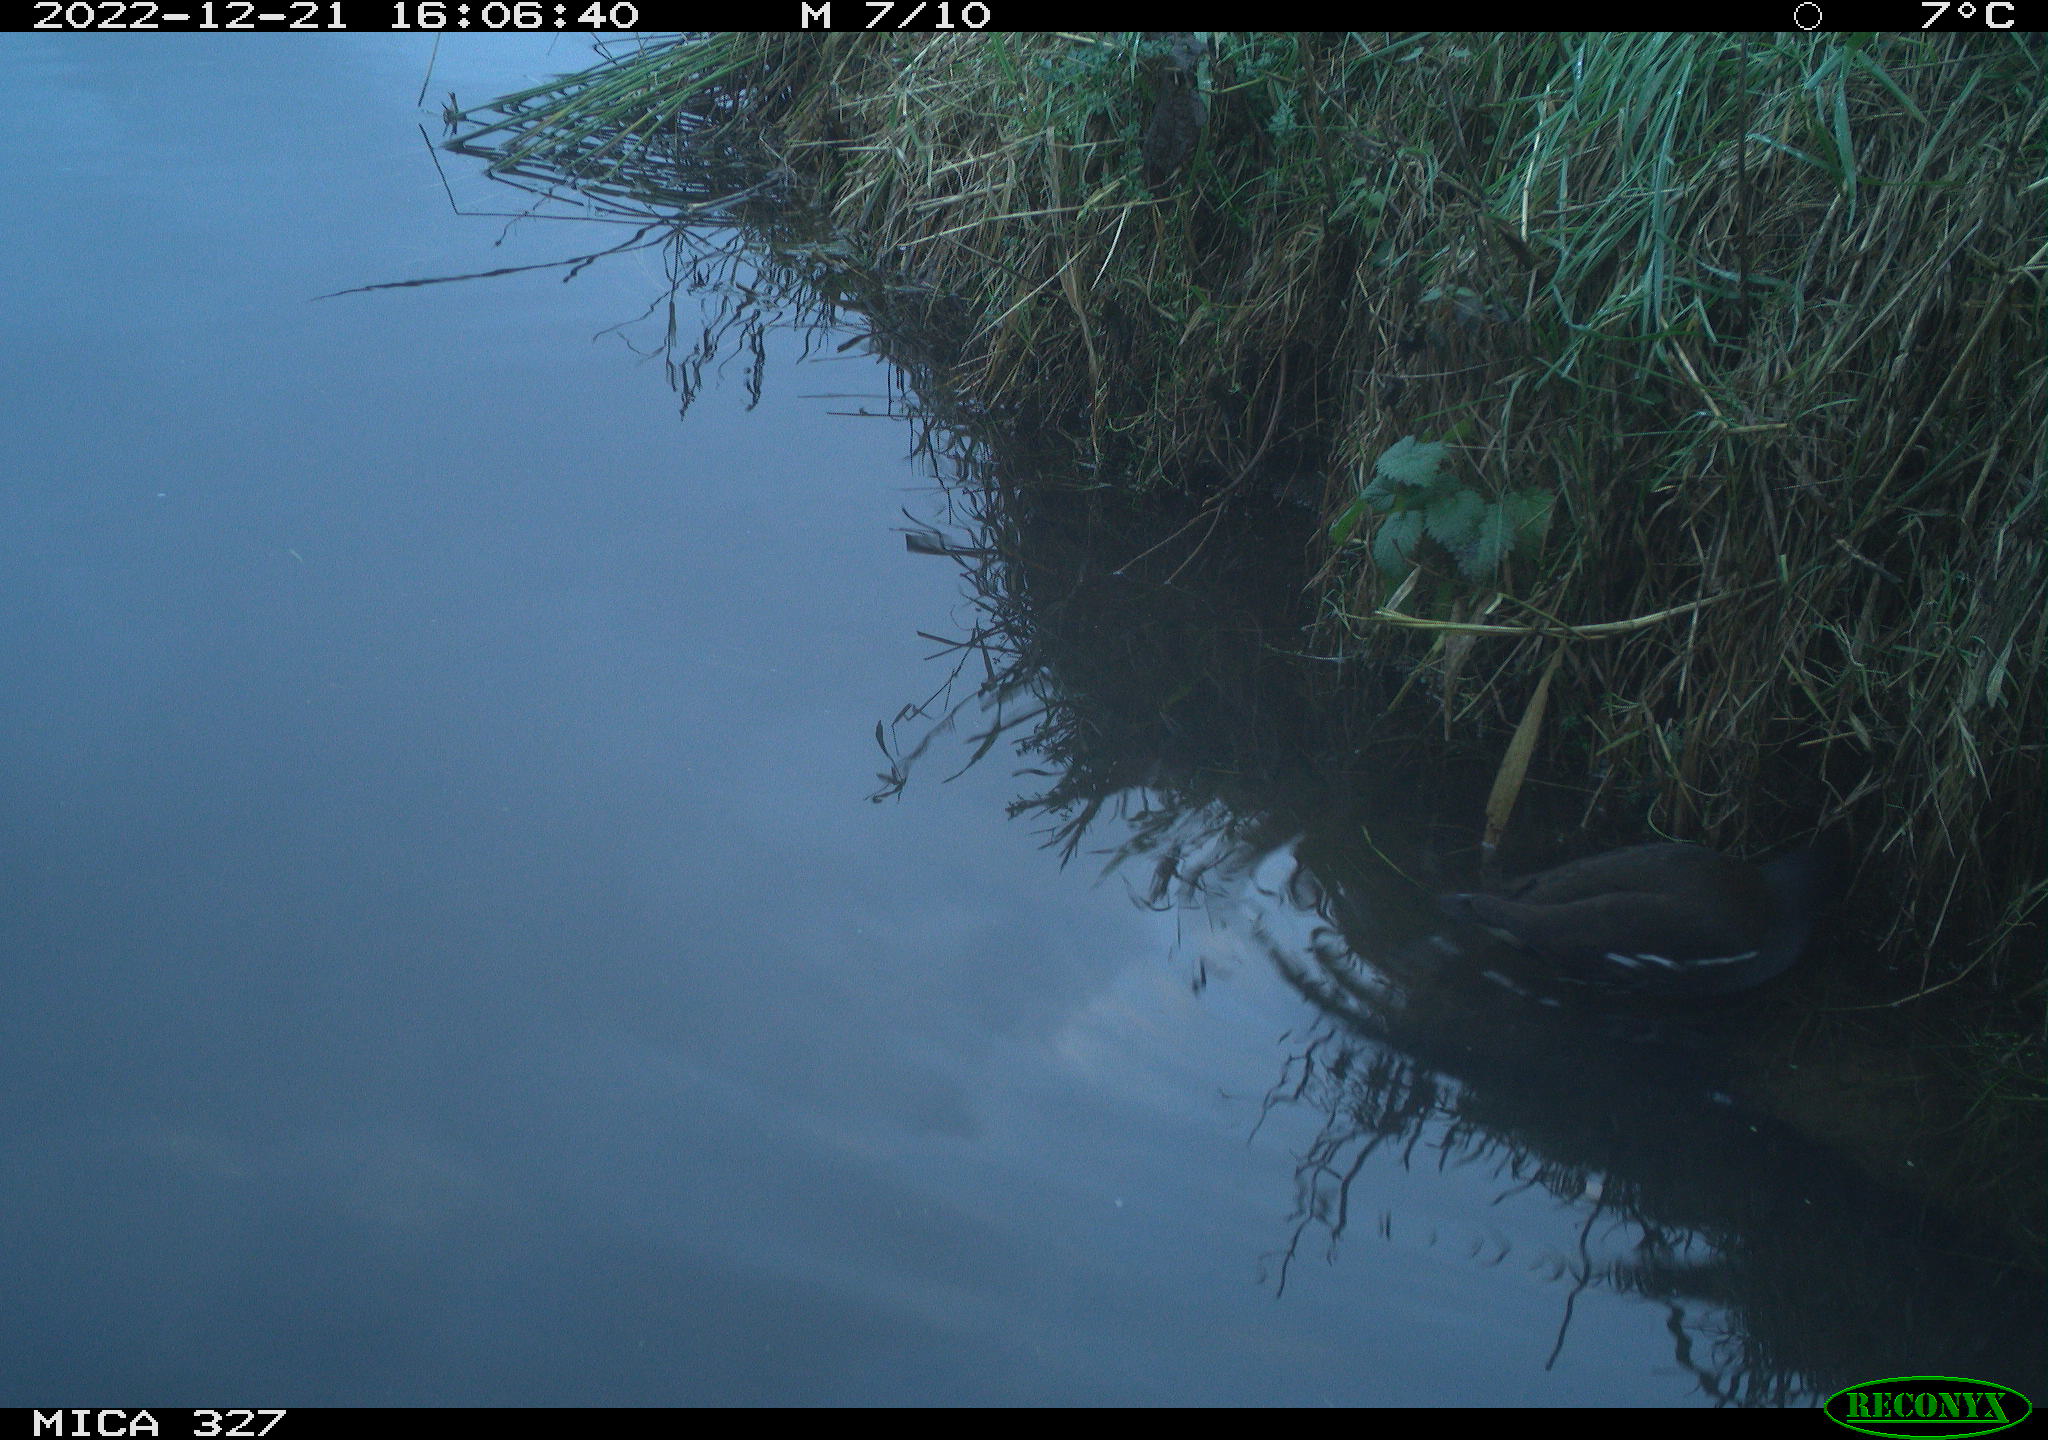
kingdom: Animalia
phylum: Chordata
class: Aves
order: Gruiformes
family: Rallidae
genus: Gallinula
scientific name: Gallinula chloropus
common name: Common moorhen
